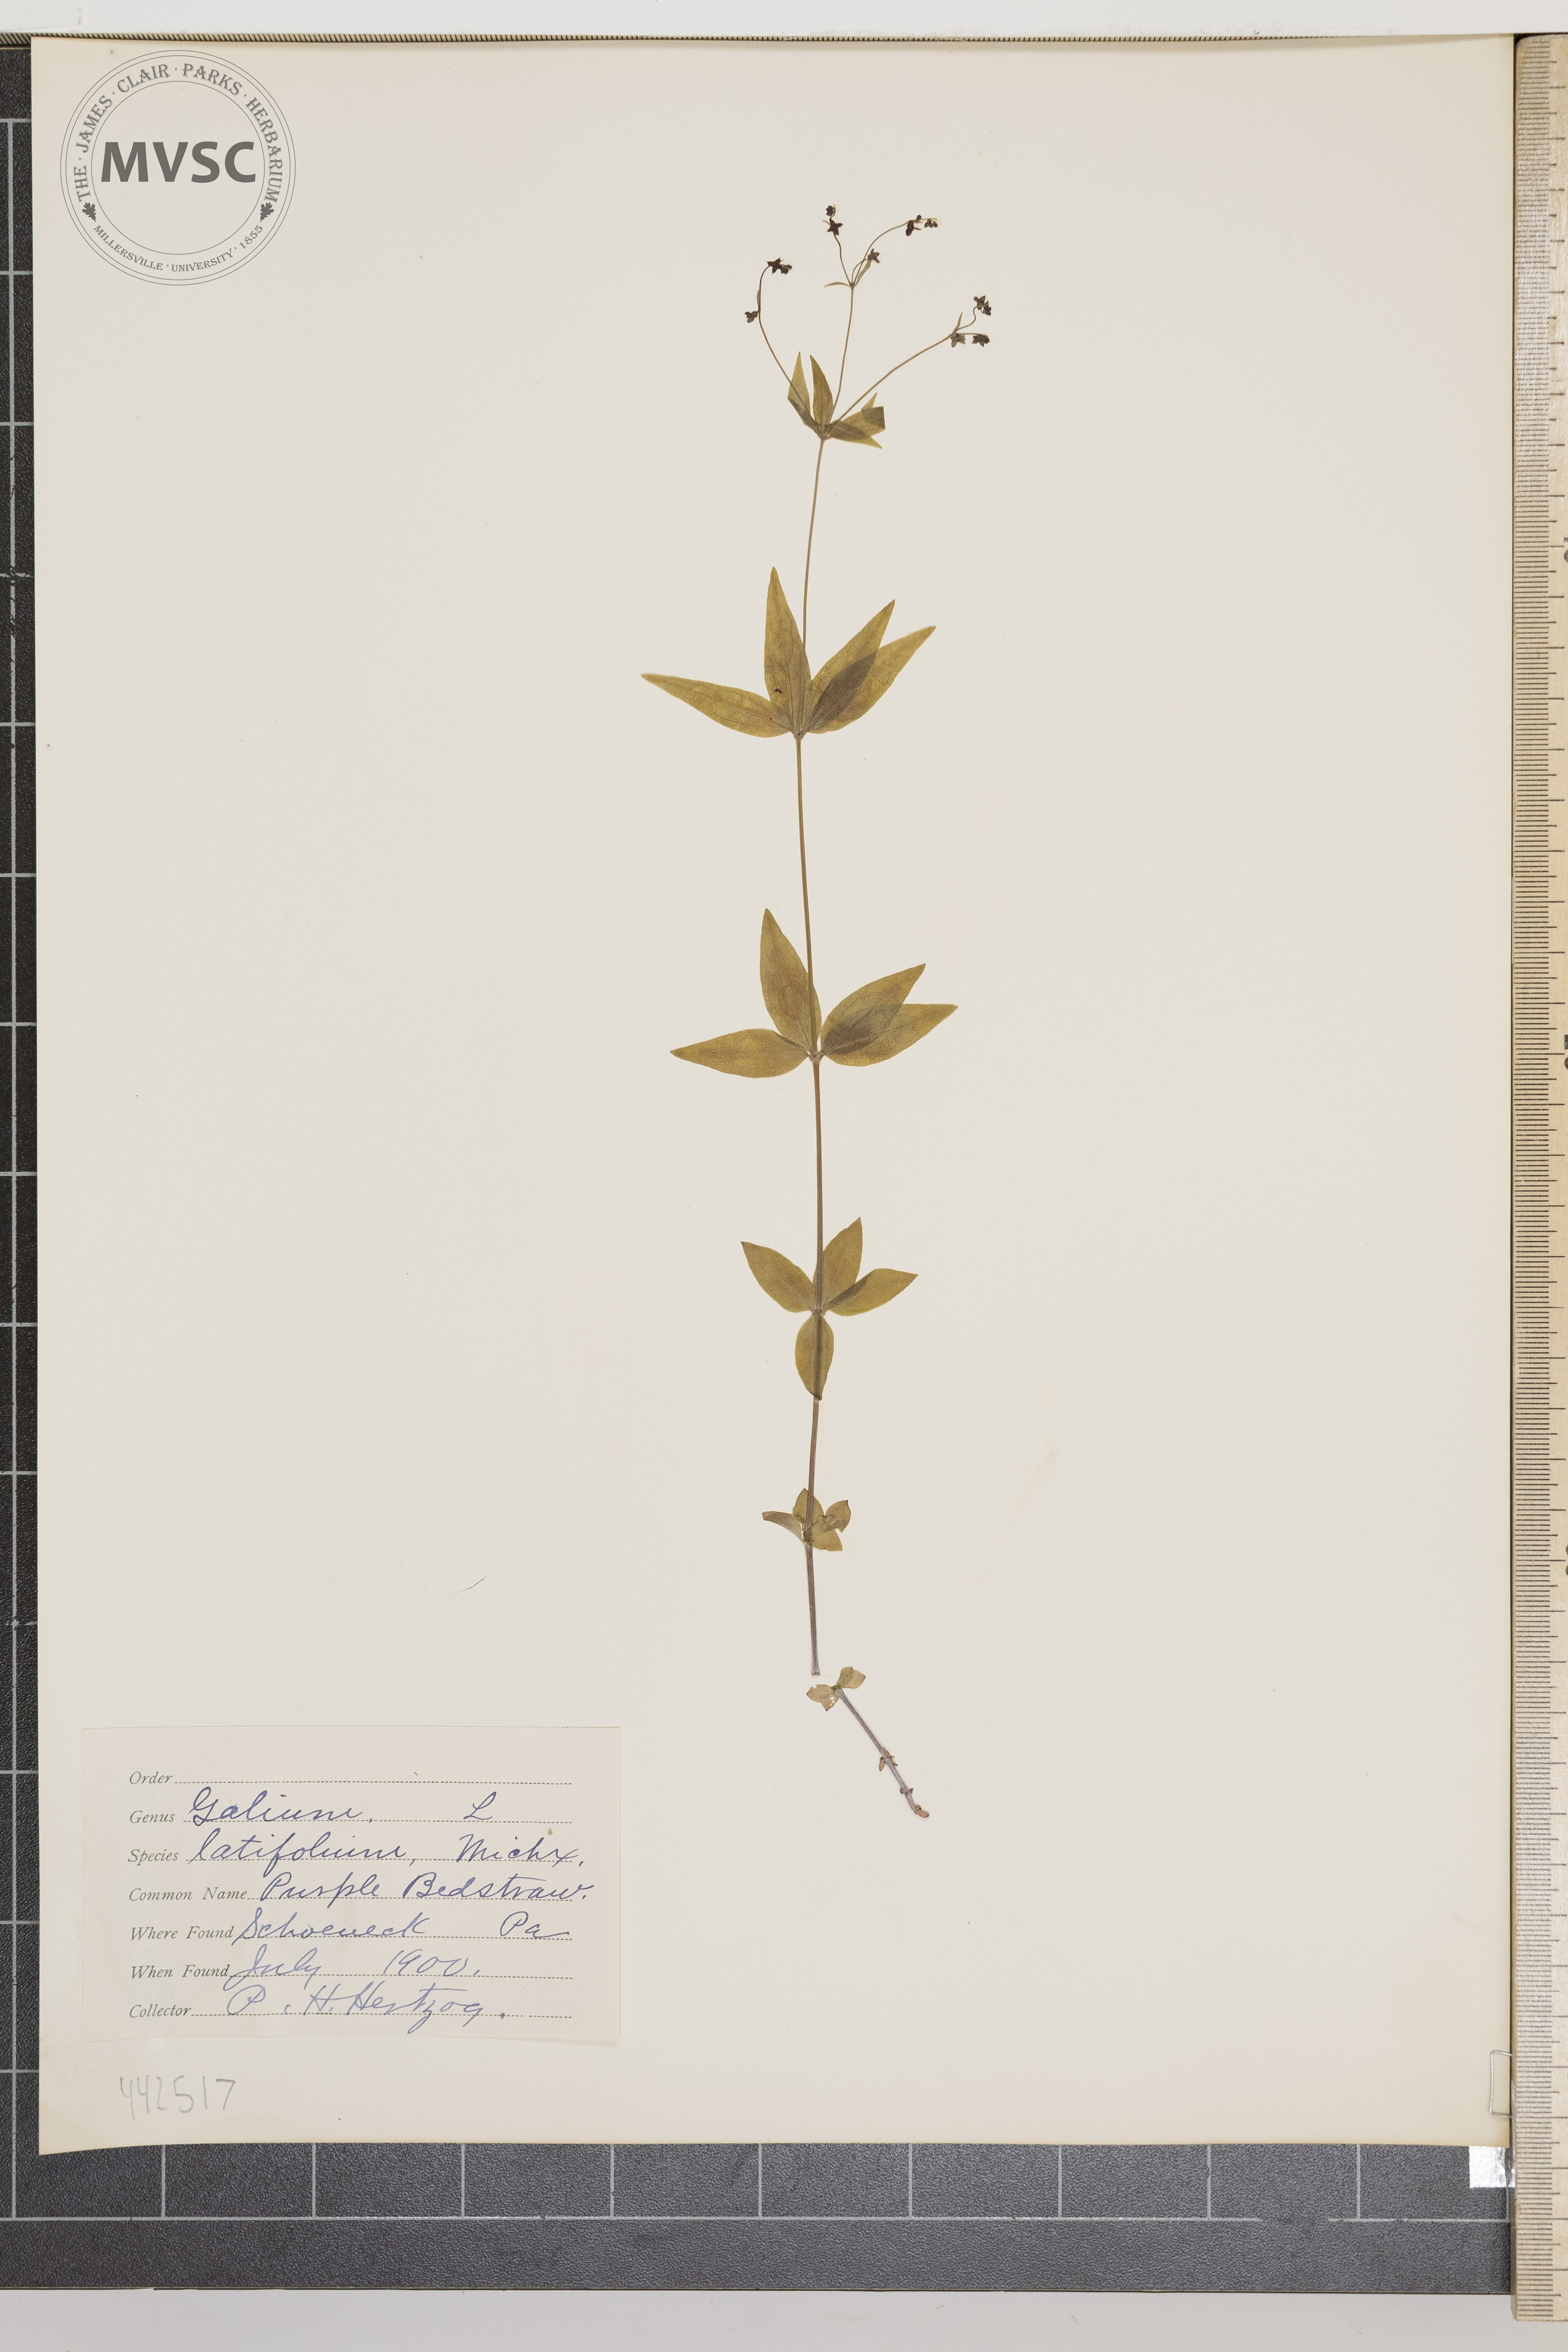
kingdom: Plantae
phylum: Tracheophyta
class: Magnoliopsida
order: Gentianales
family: Rubiaceae
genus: Galium
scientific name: Galium lanceolatum
